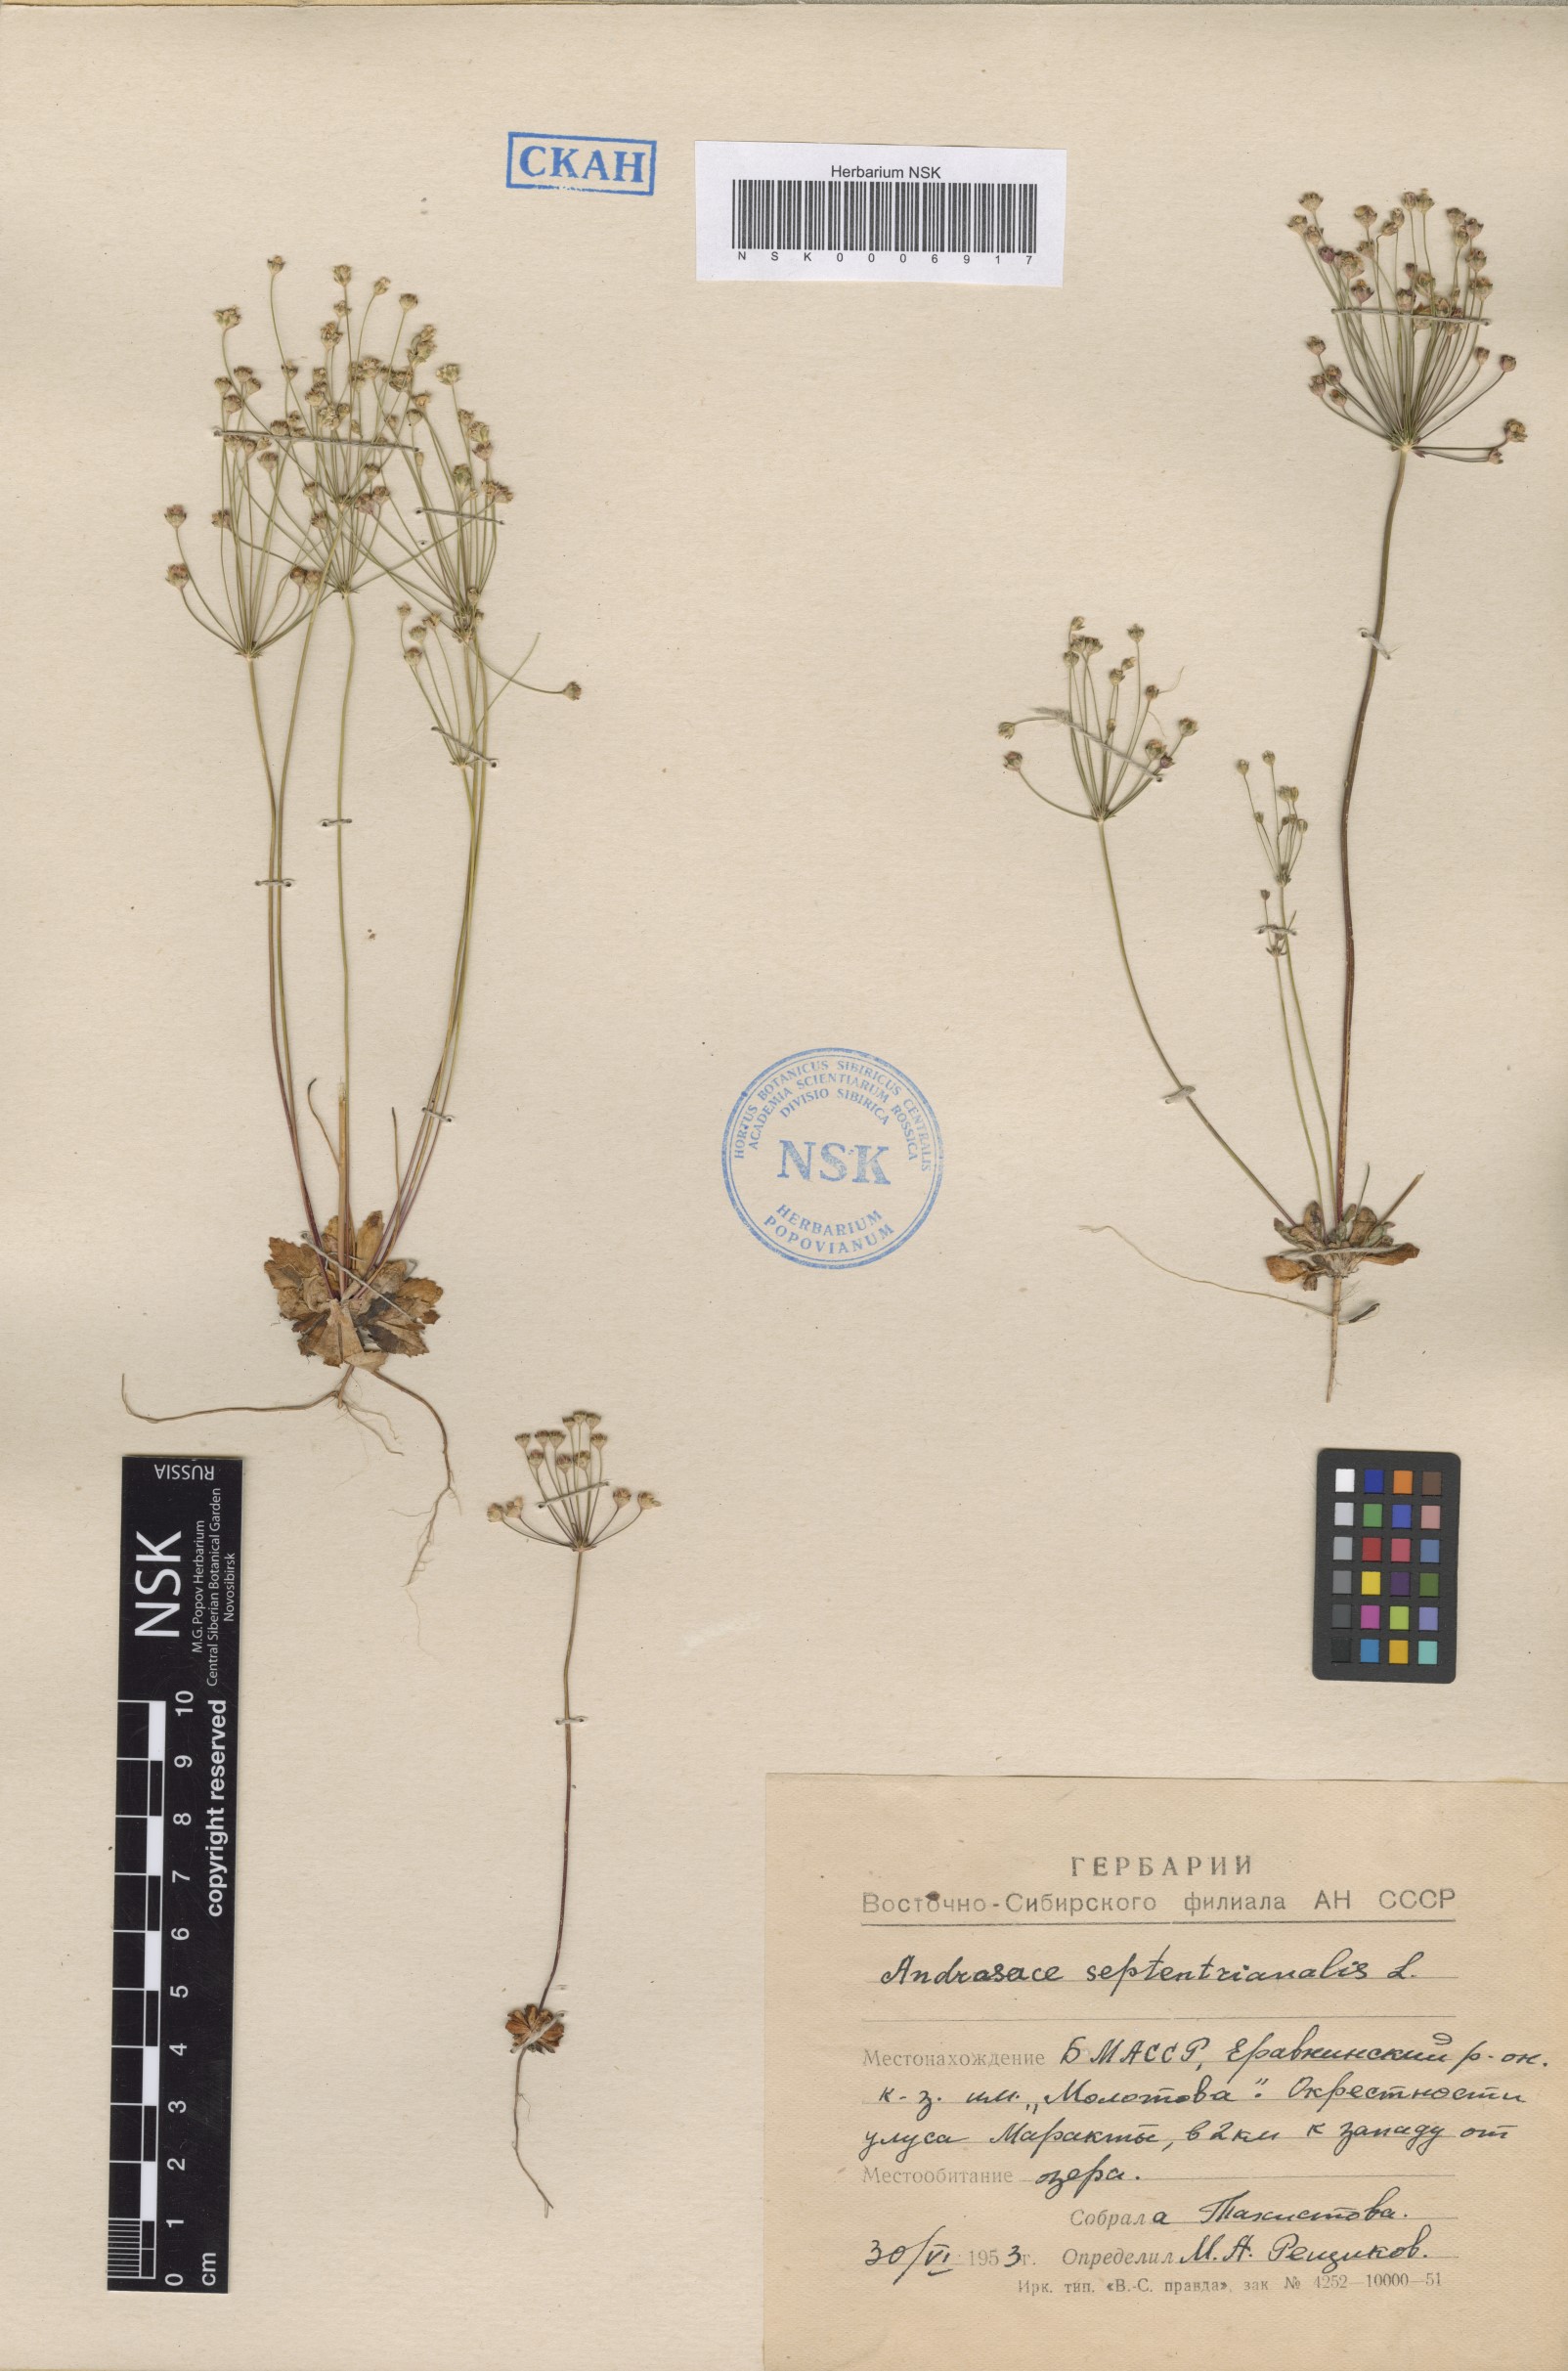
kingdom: Plantae
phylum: Tracheophyta
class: Magnoliopsida
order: Ericales
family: Primulaceae
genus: Androsace
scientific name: Androsace septentrionalis
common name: Hairy northern fairy-candelabra
